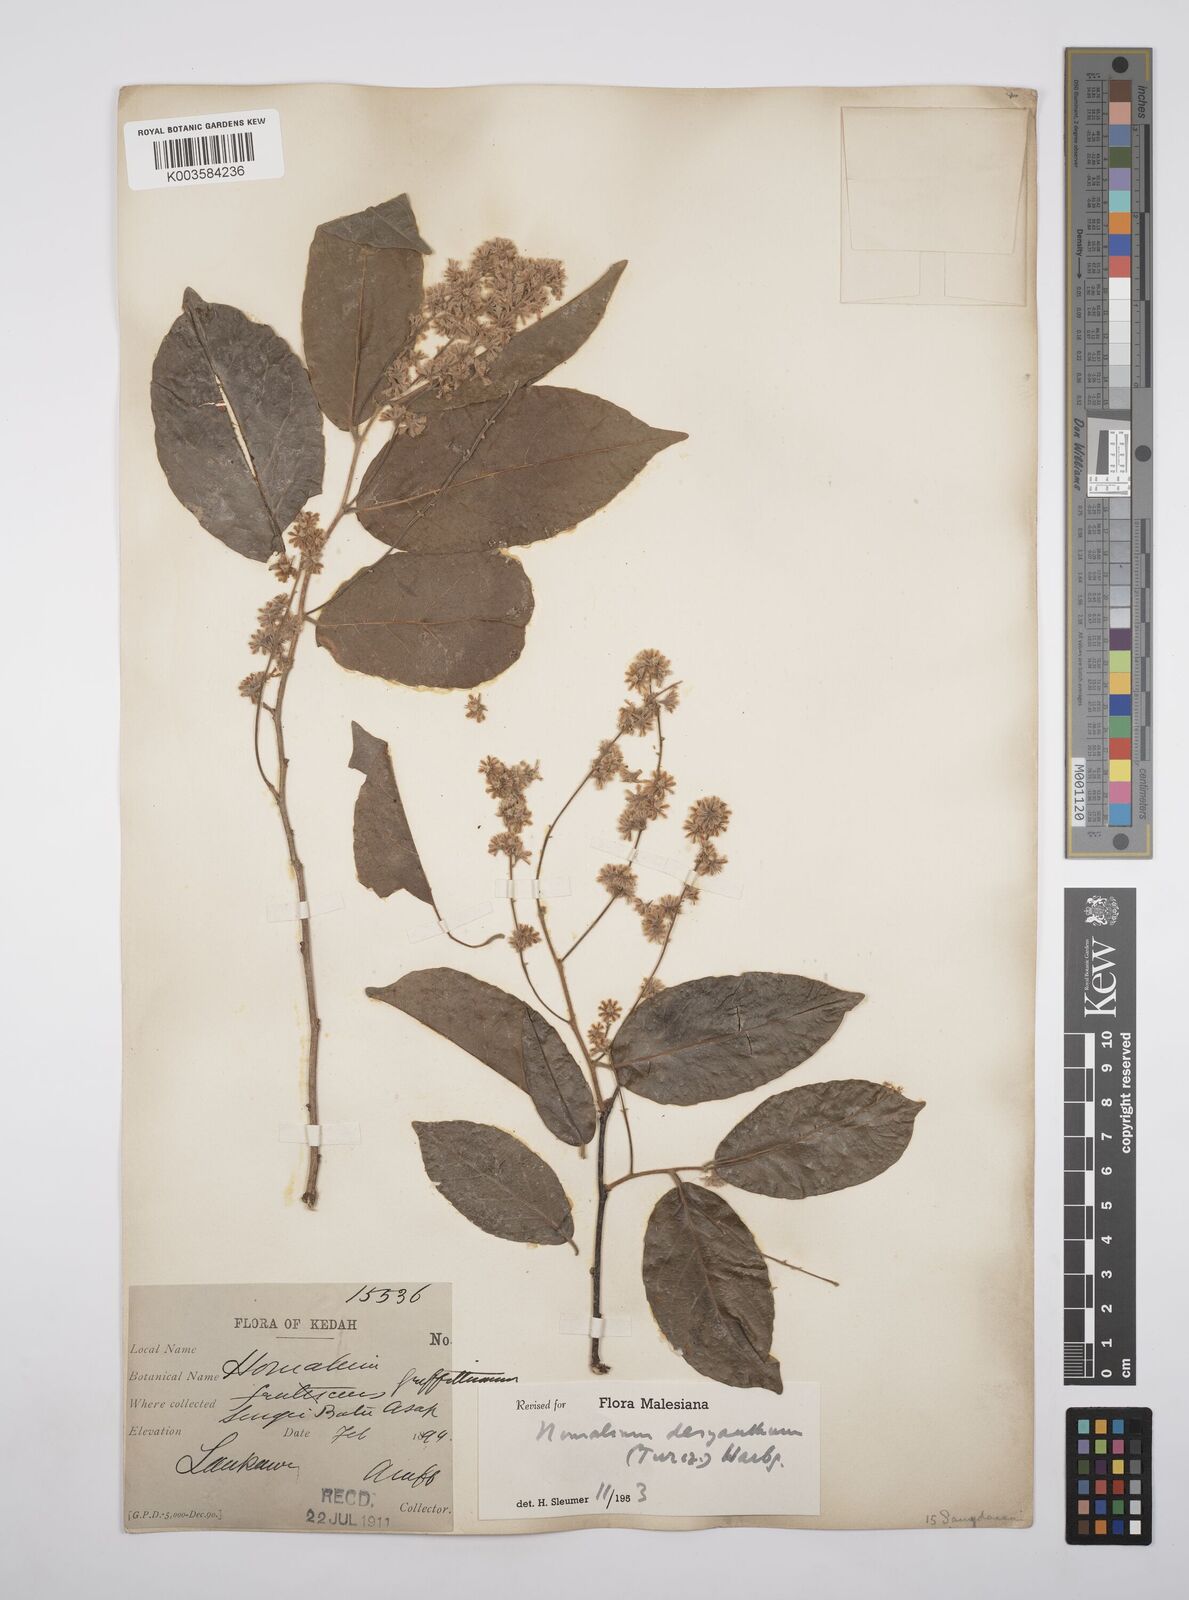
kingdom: Plantae
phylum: Tracheophyta
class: Magnoliopsida
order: Malpighiales
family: Salicaceae
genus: Homalium
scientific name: Homalium dasyanthum
